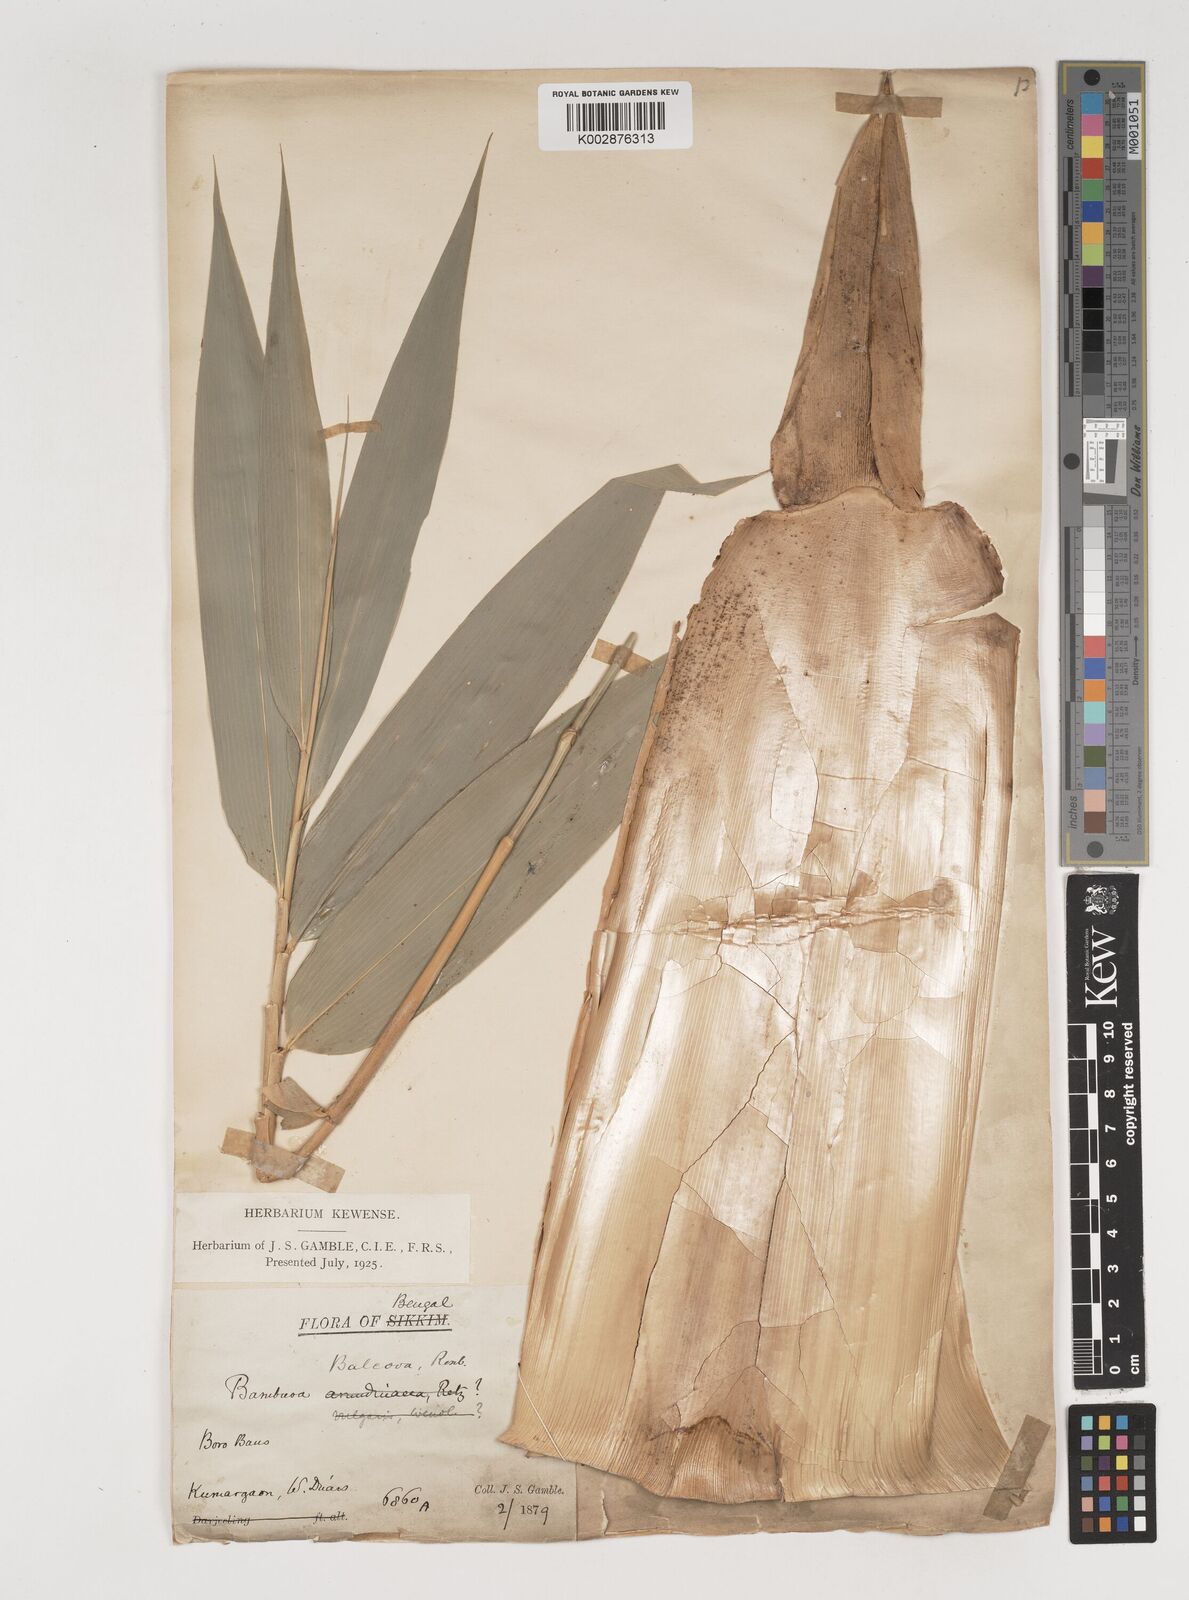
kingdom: Plantae
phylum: Tracheophyta
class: Liliopsida
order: Poales
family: Poaceae
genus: Bambusa
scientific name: Bambusa balcooa
